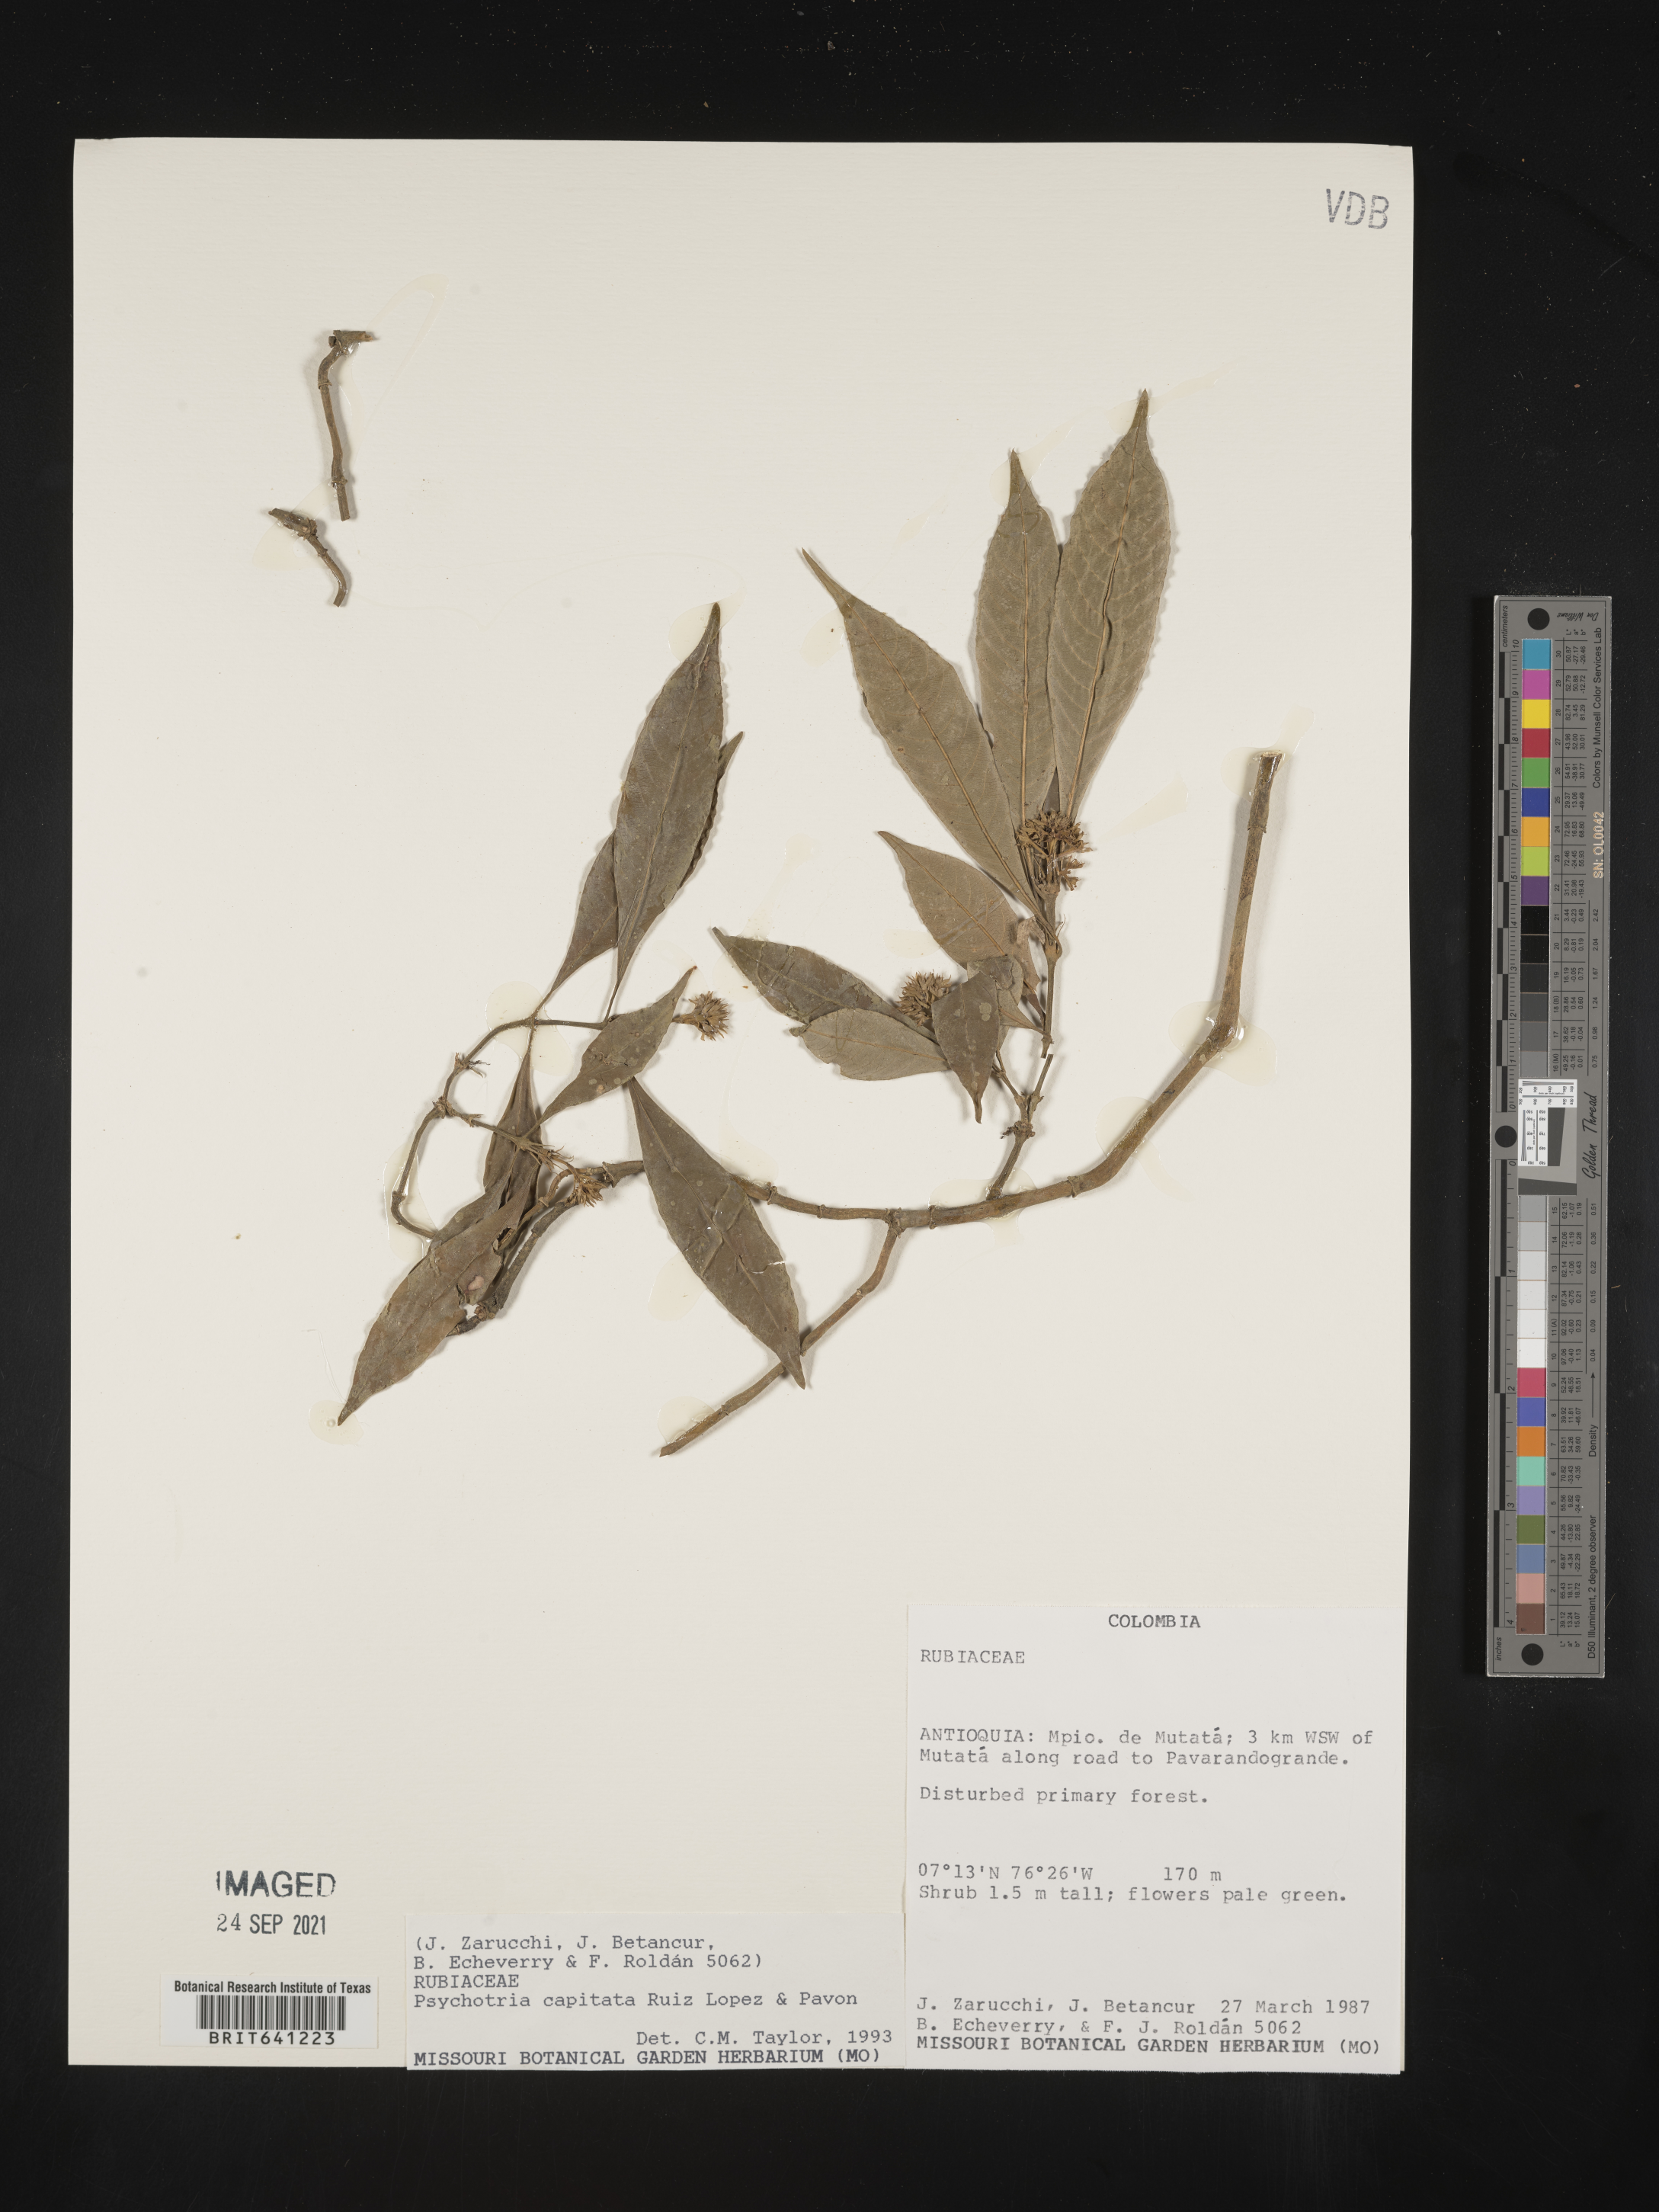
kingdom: Plantae
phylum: Tracheophyta
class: Magnoliopsida
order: Gentianales
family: Rubiaceae
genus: Psychotria
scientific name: Psychotria
